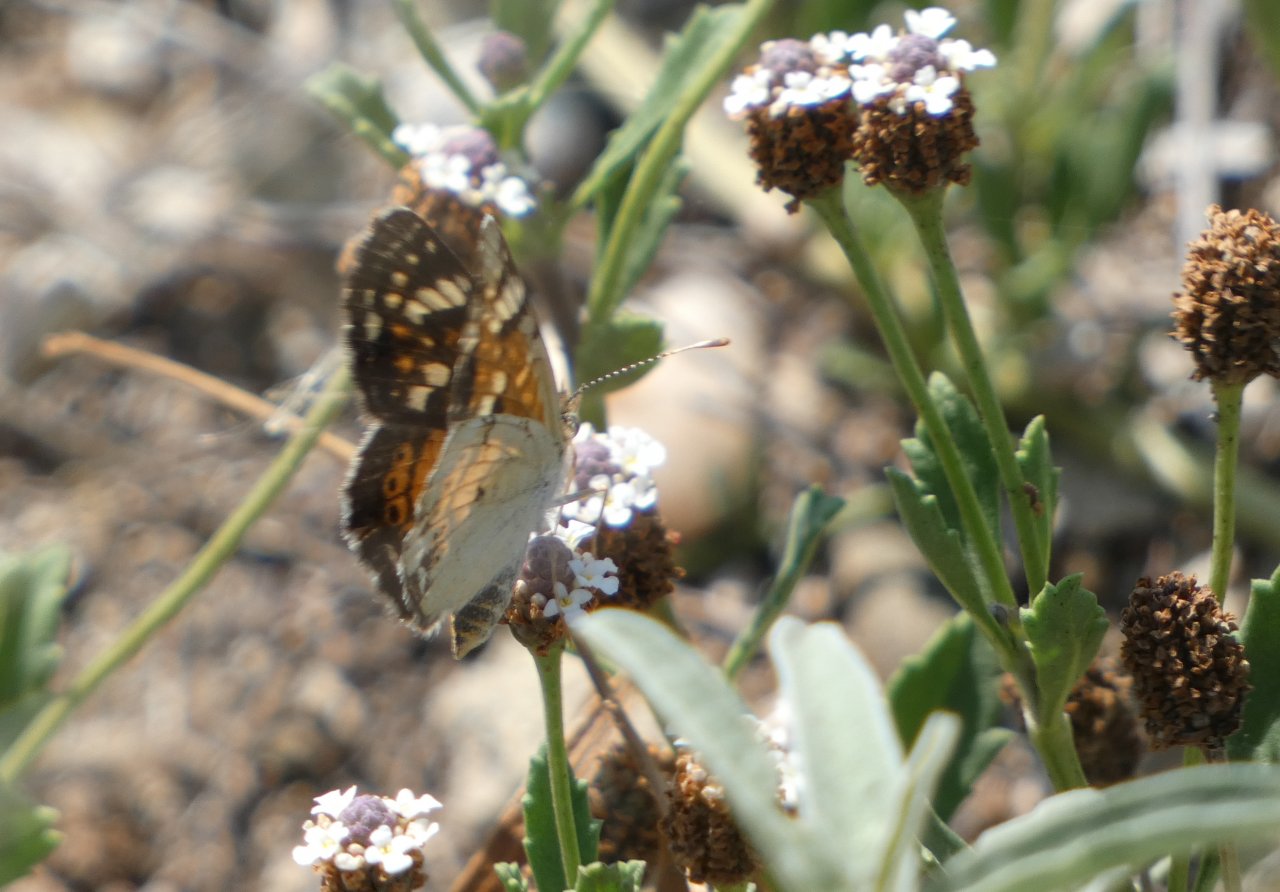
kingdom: Animalia
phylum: Arthropoda
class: Insecta
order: Lepidoptera
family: Nymphalidae
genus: Phyciodes
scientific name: Phyciodes phaon
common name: Phaon Crescent
